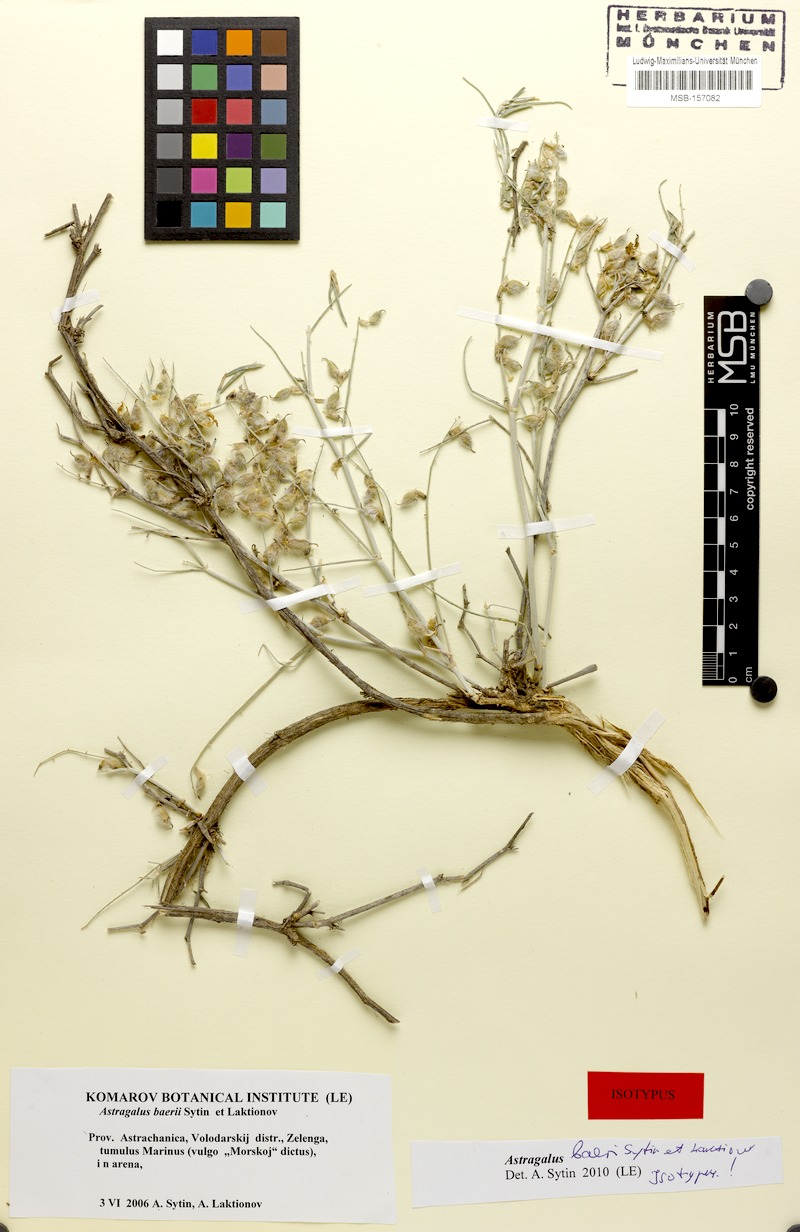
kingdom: Plantae
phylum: Tracheophyta
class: Magnoliopsida
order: Fabales
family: Fabaceae
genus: Astragalus
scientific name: Astragalus baeri
